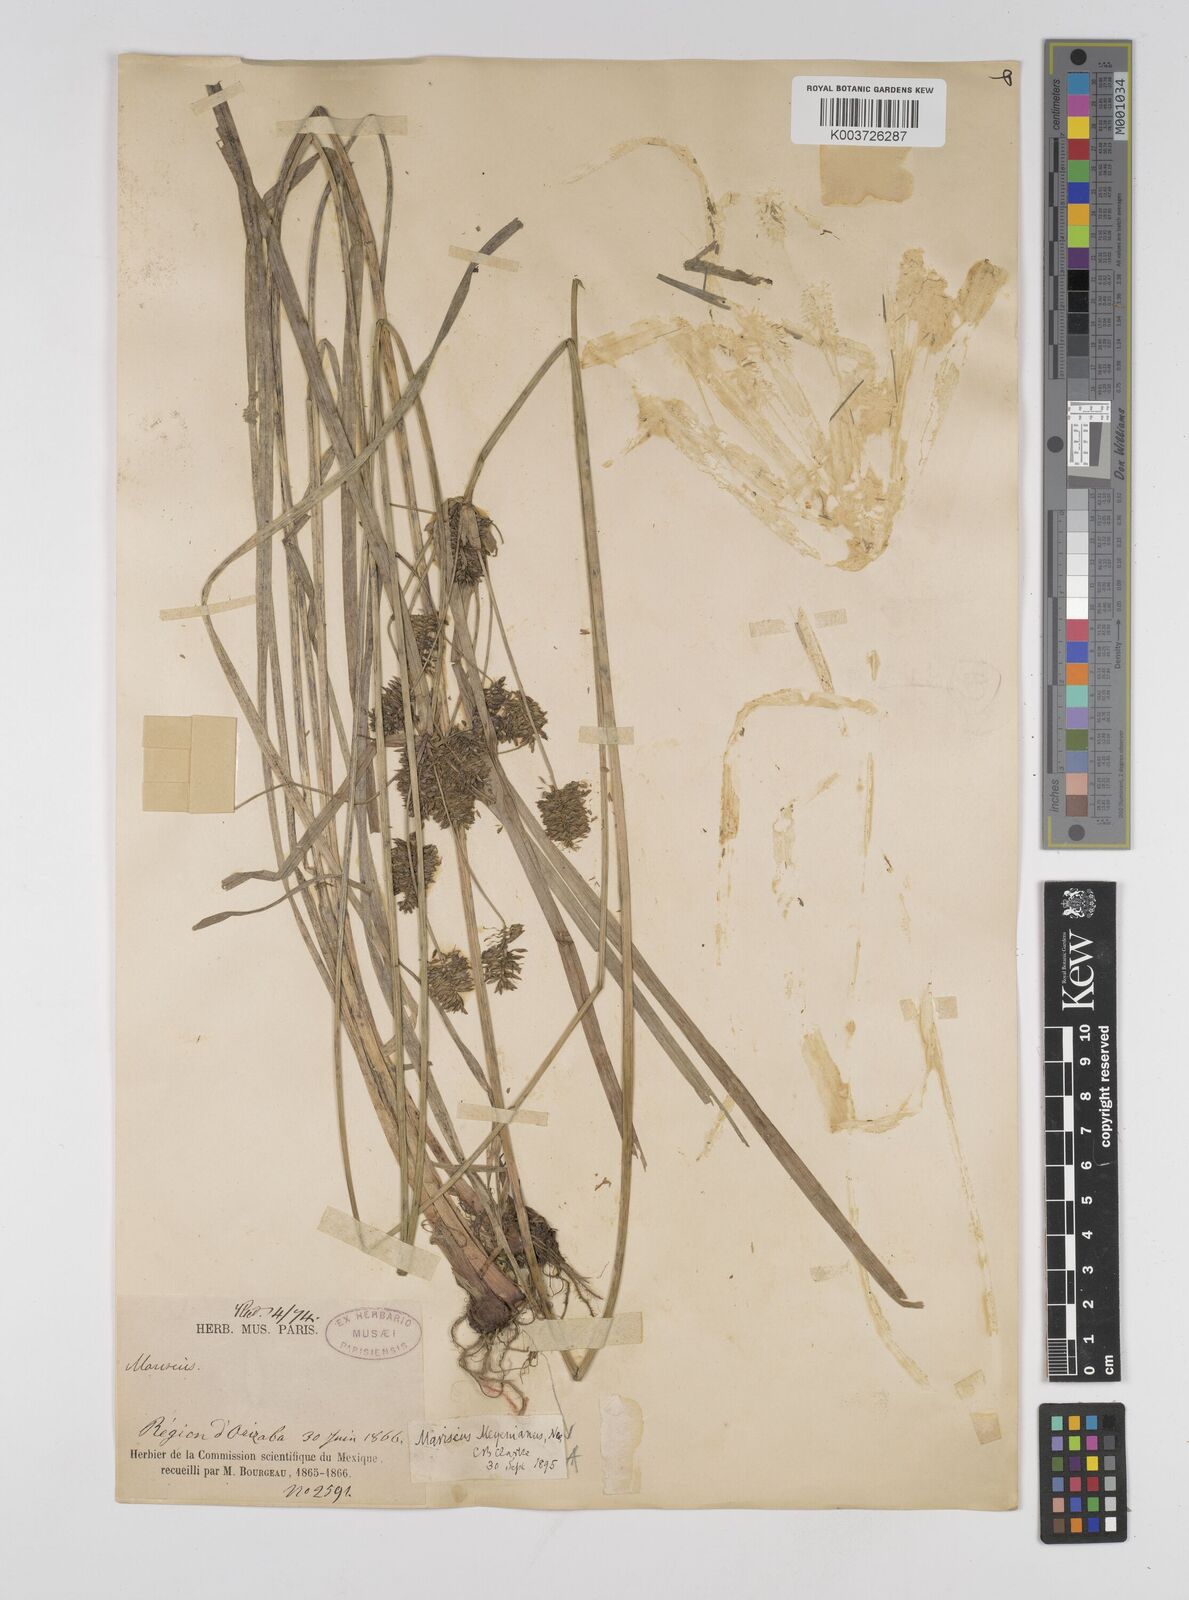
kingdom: Plantae
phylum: Tracheophyta
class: Liliopsida
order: Poales
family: Cyperaceae
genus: Cyperus
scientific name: Cyperus meyerianus
